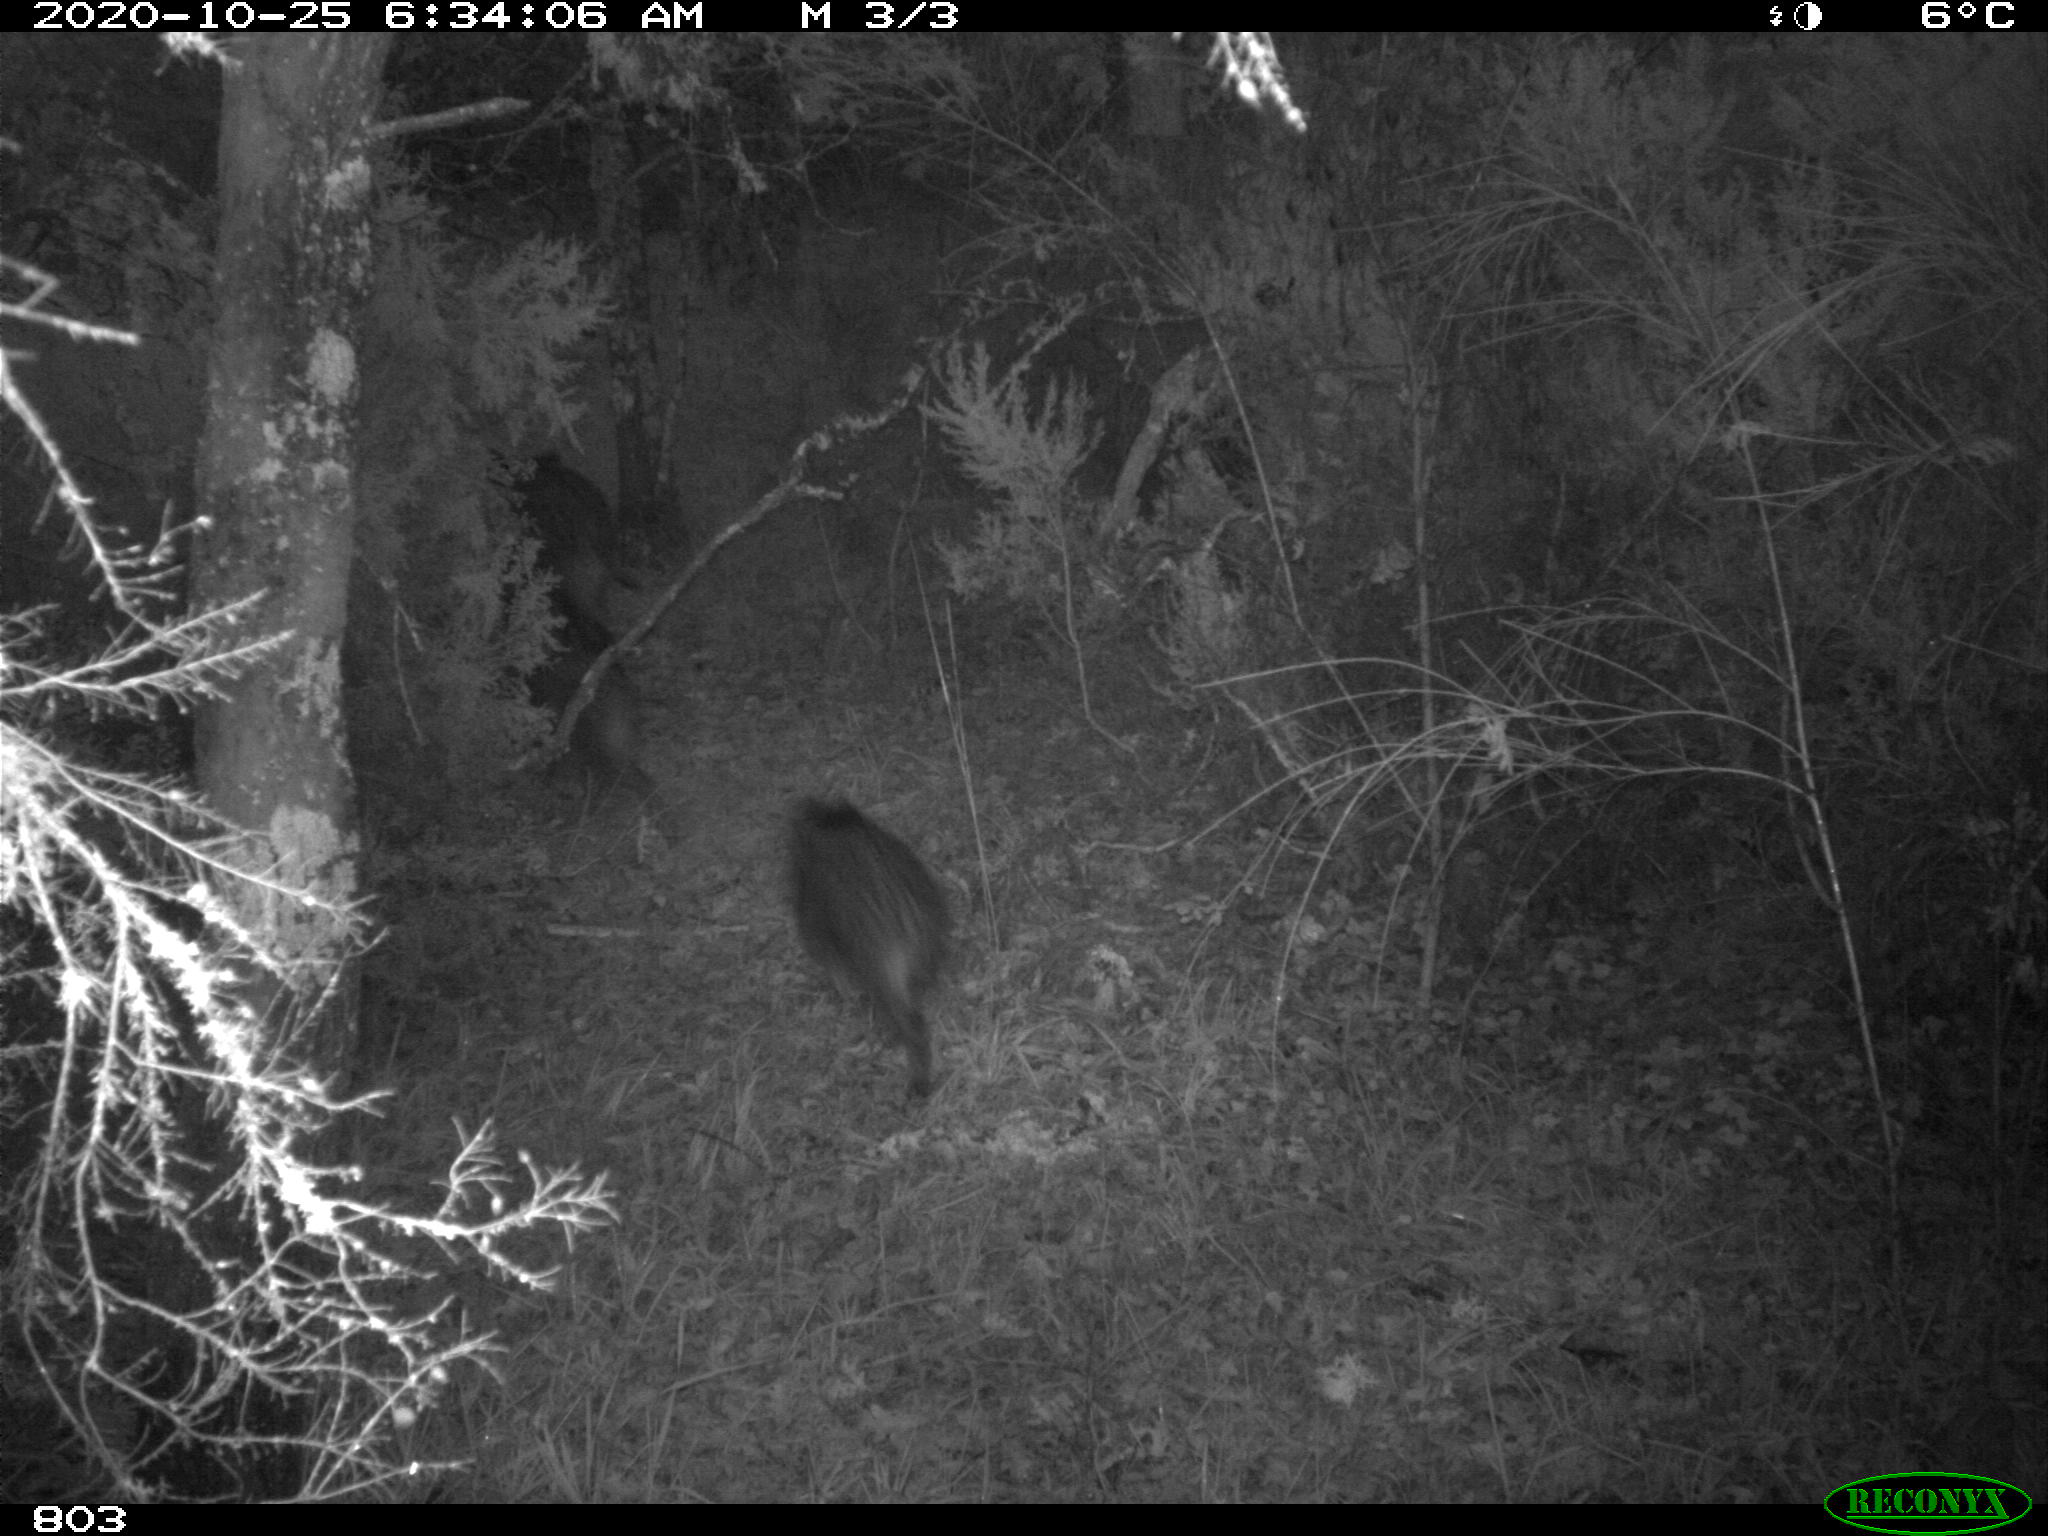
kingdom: Animalia
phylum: Chordata
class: Mammalia
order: Artiodactyla
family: Suidae
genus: Sus
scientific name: Sus scrofa
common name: Wild boar
